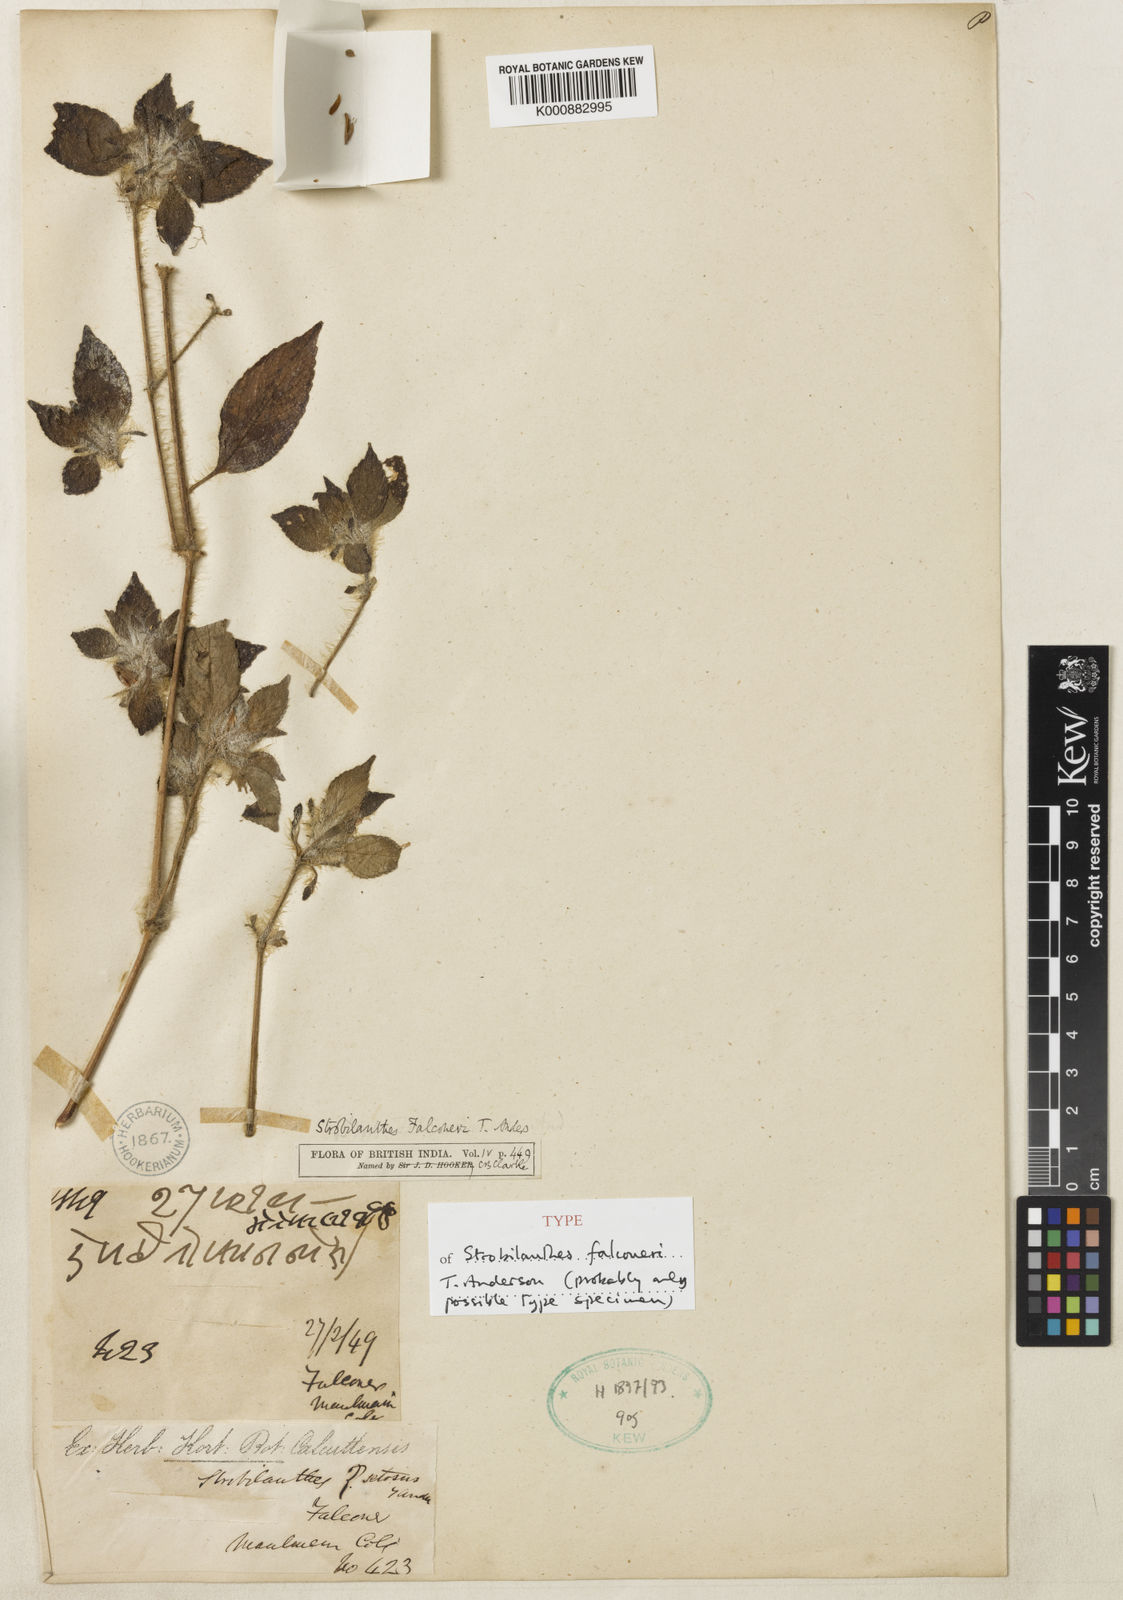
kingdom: Plantae
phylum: Tracheophyta
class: Magnoliopsida
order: Lamiales
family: Acanthaceae
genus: Strobilanthes
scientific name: Strobilanthes falconeri
